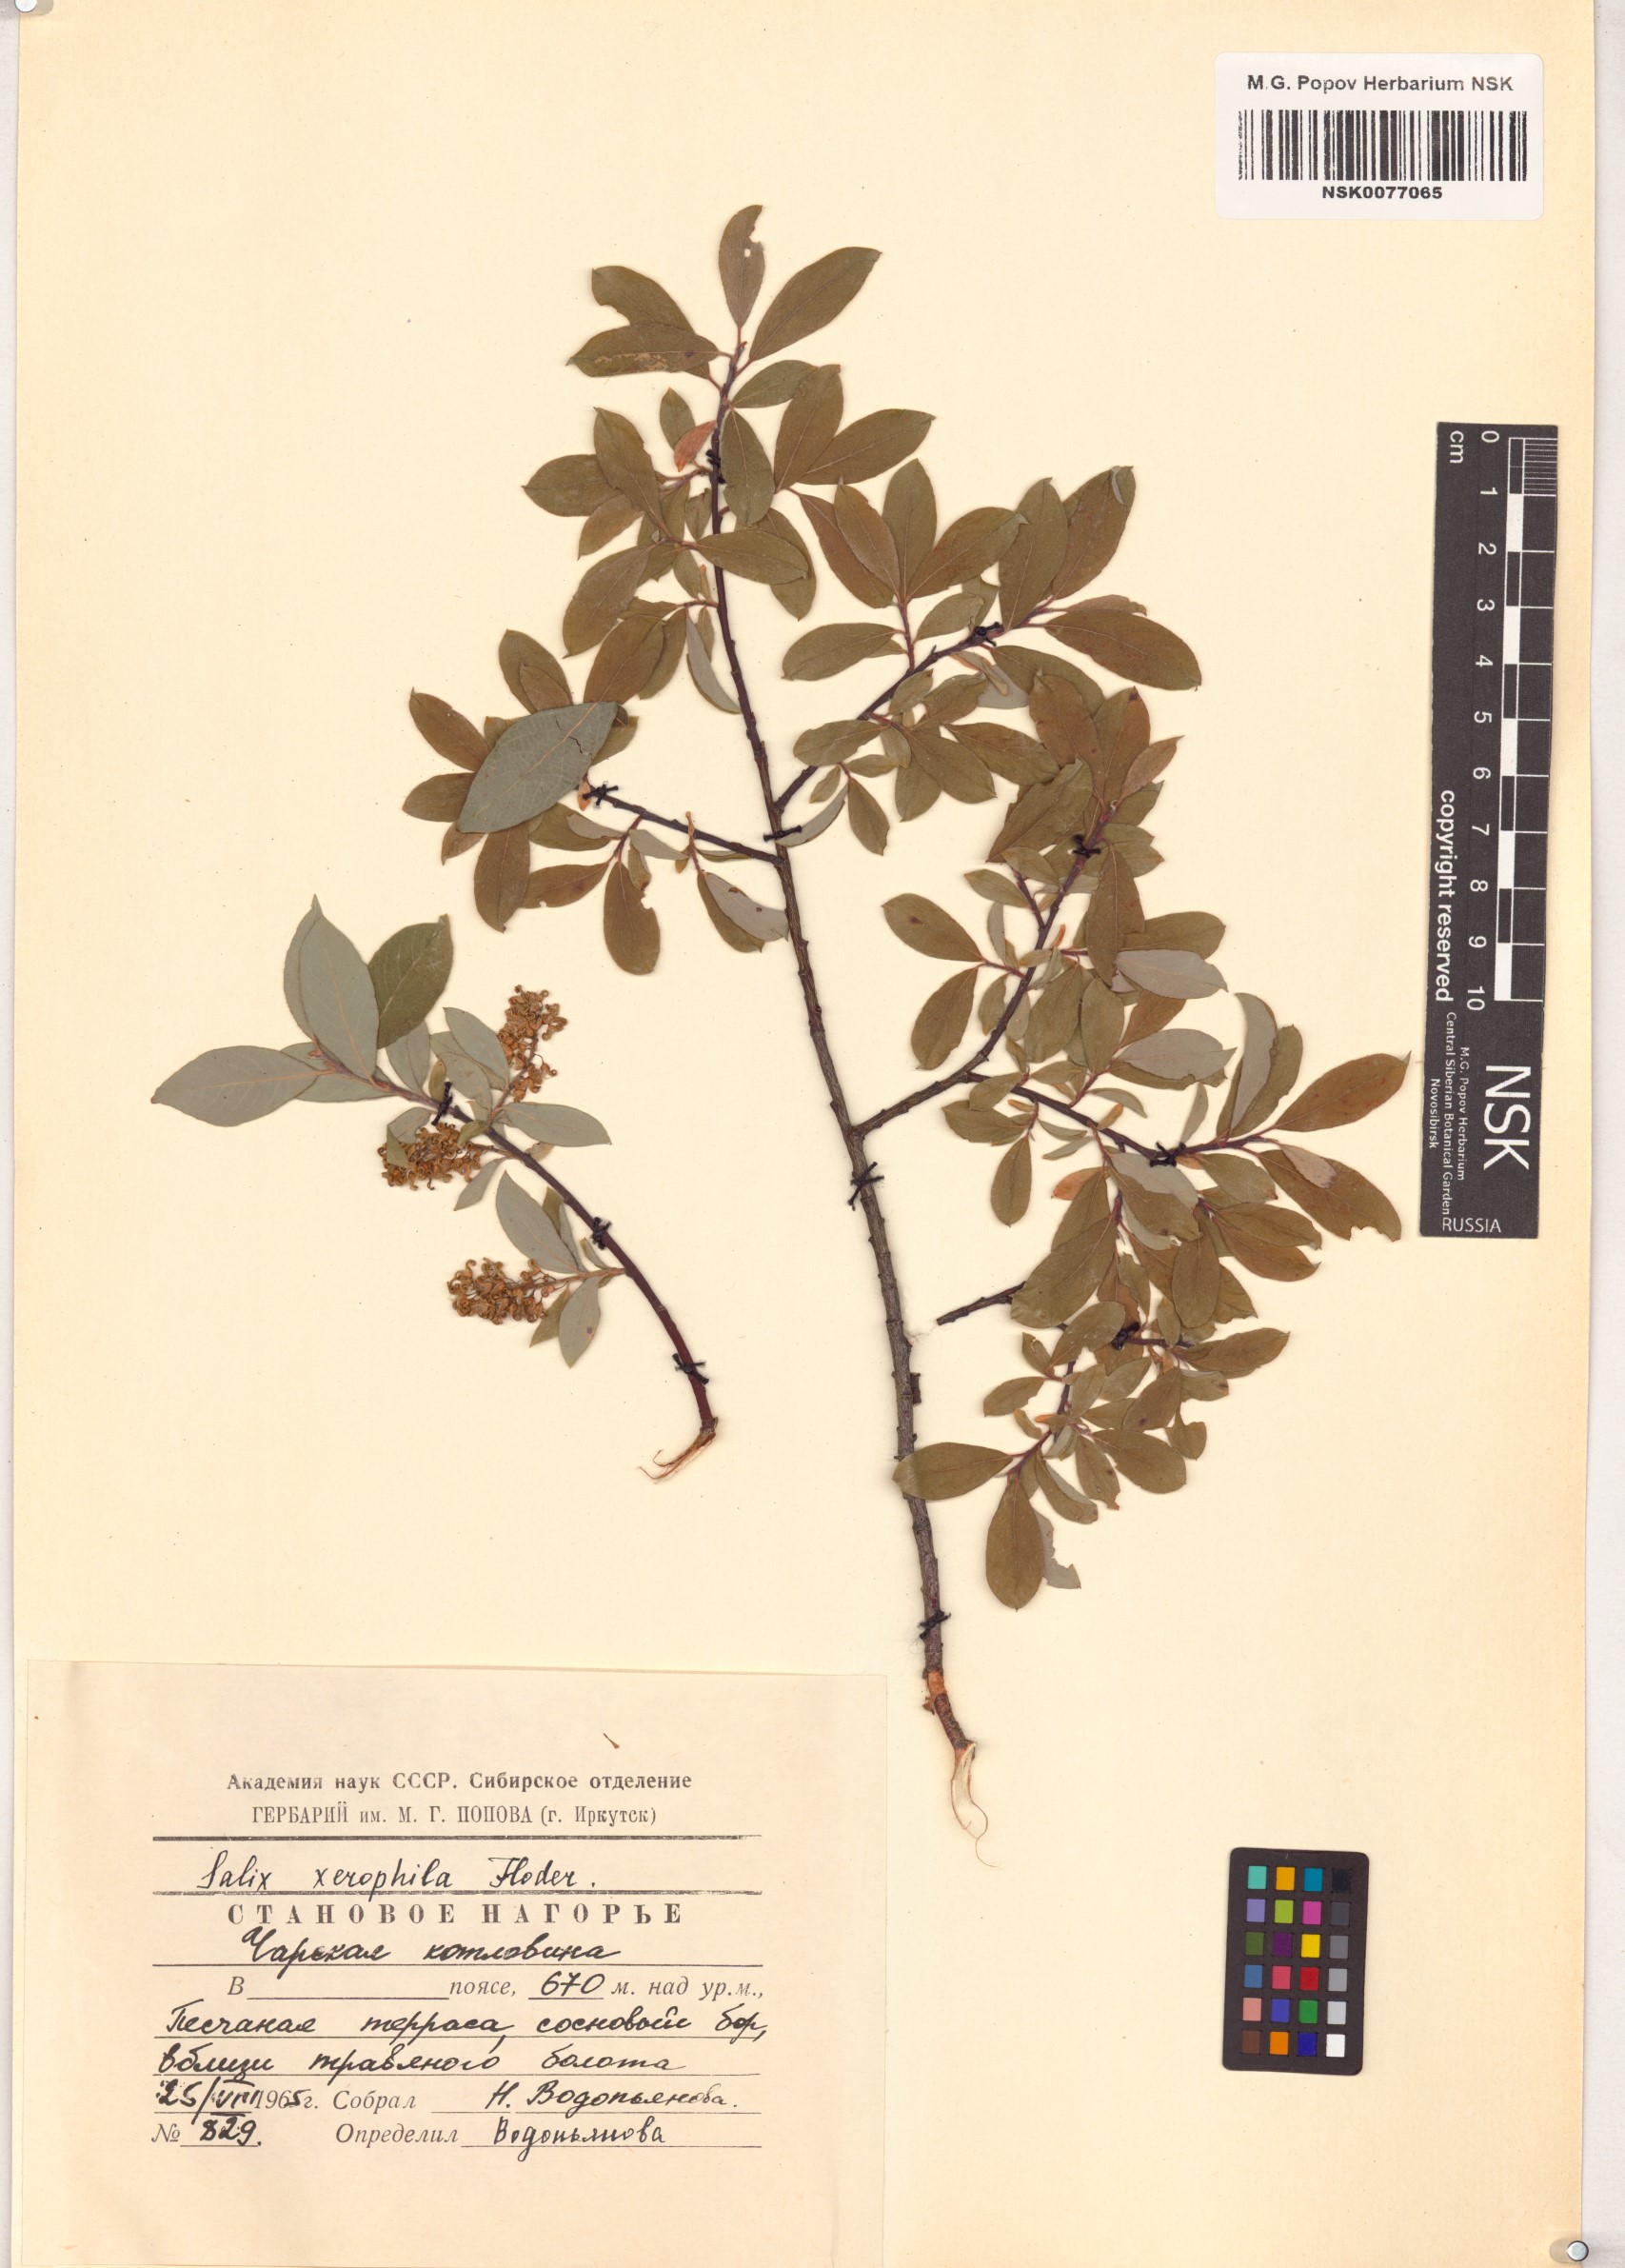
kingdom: Plantae
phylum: Tracheophyta
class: Magnoliopsida
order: Malpighiales
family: Salicaceae
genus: Salix
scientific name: Salix bebbiana
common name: Bebb's willow
